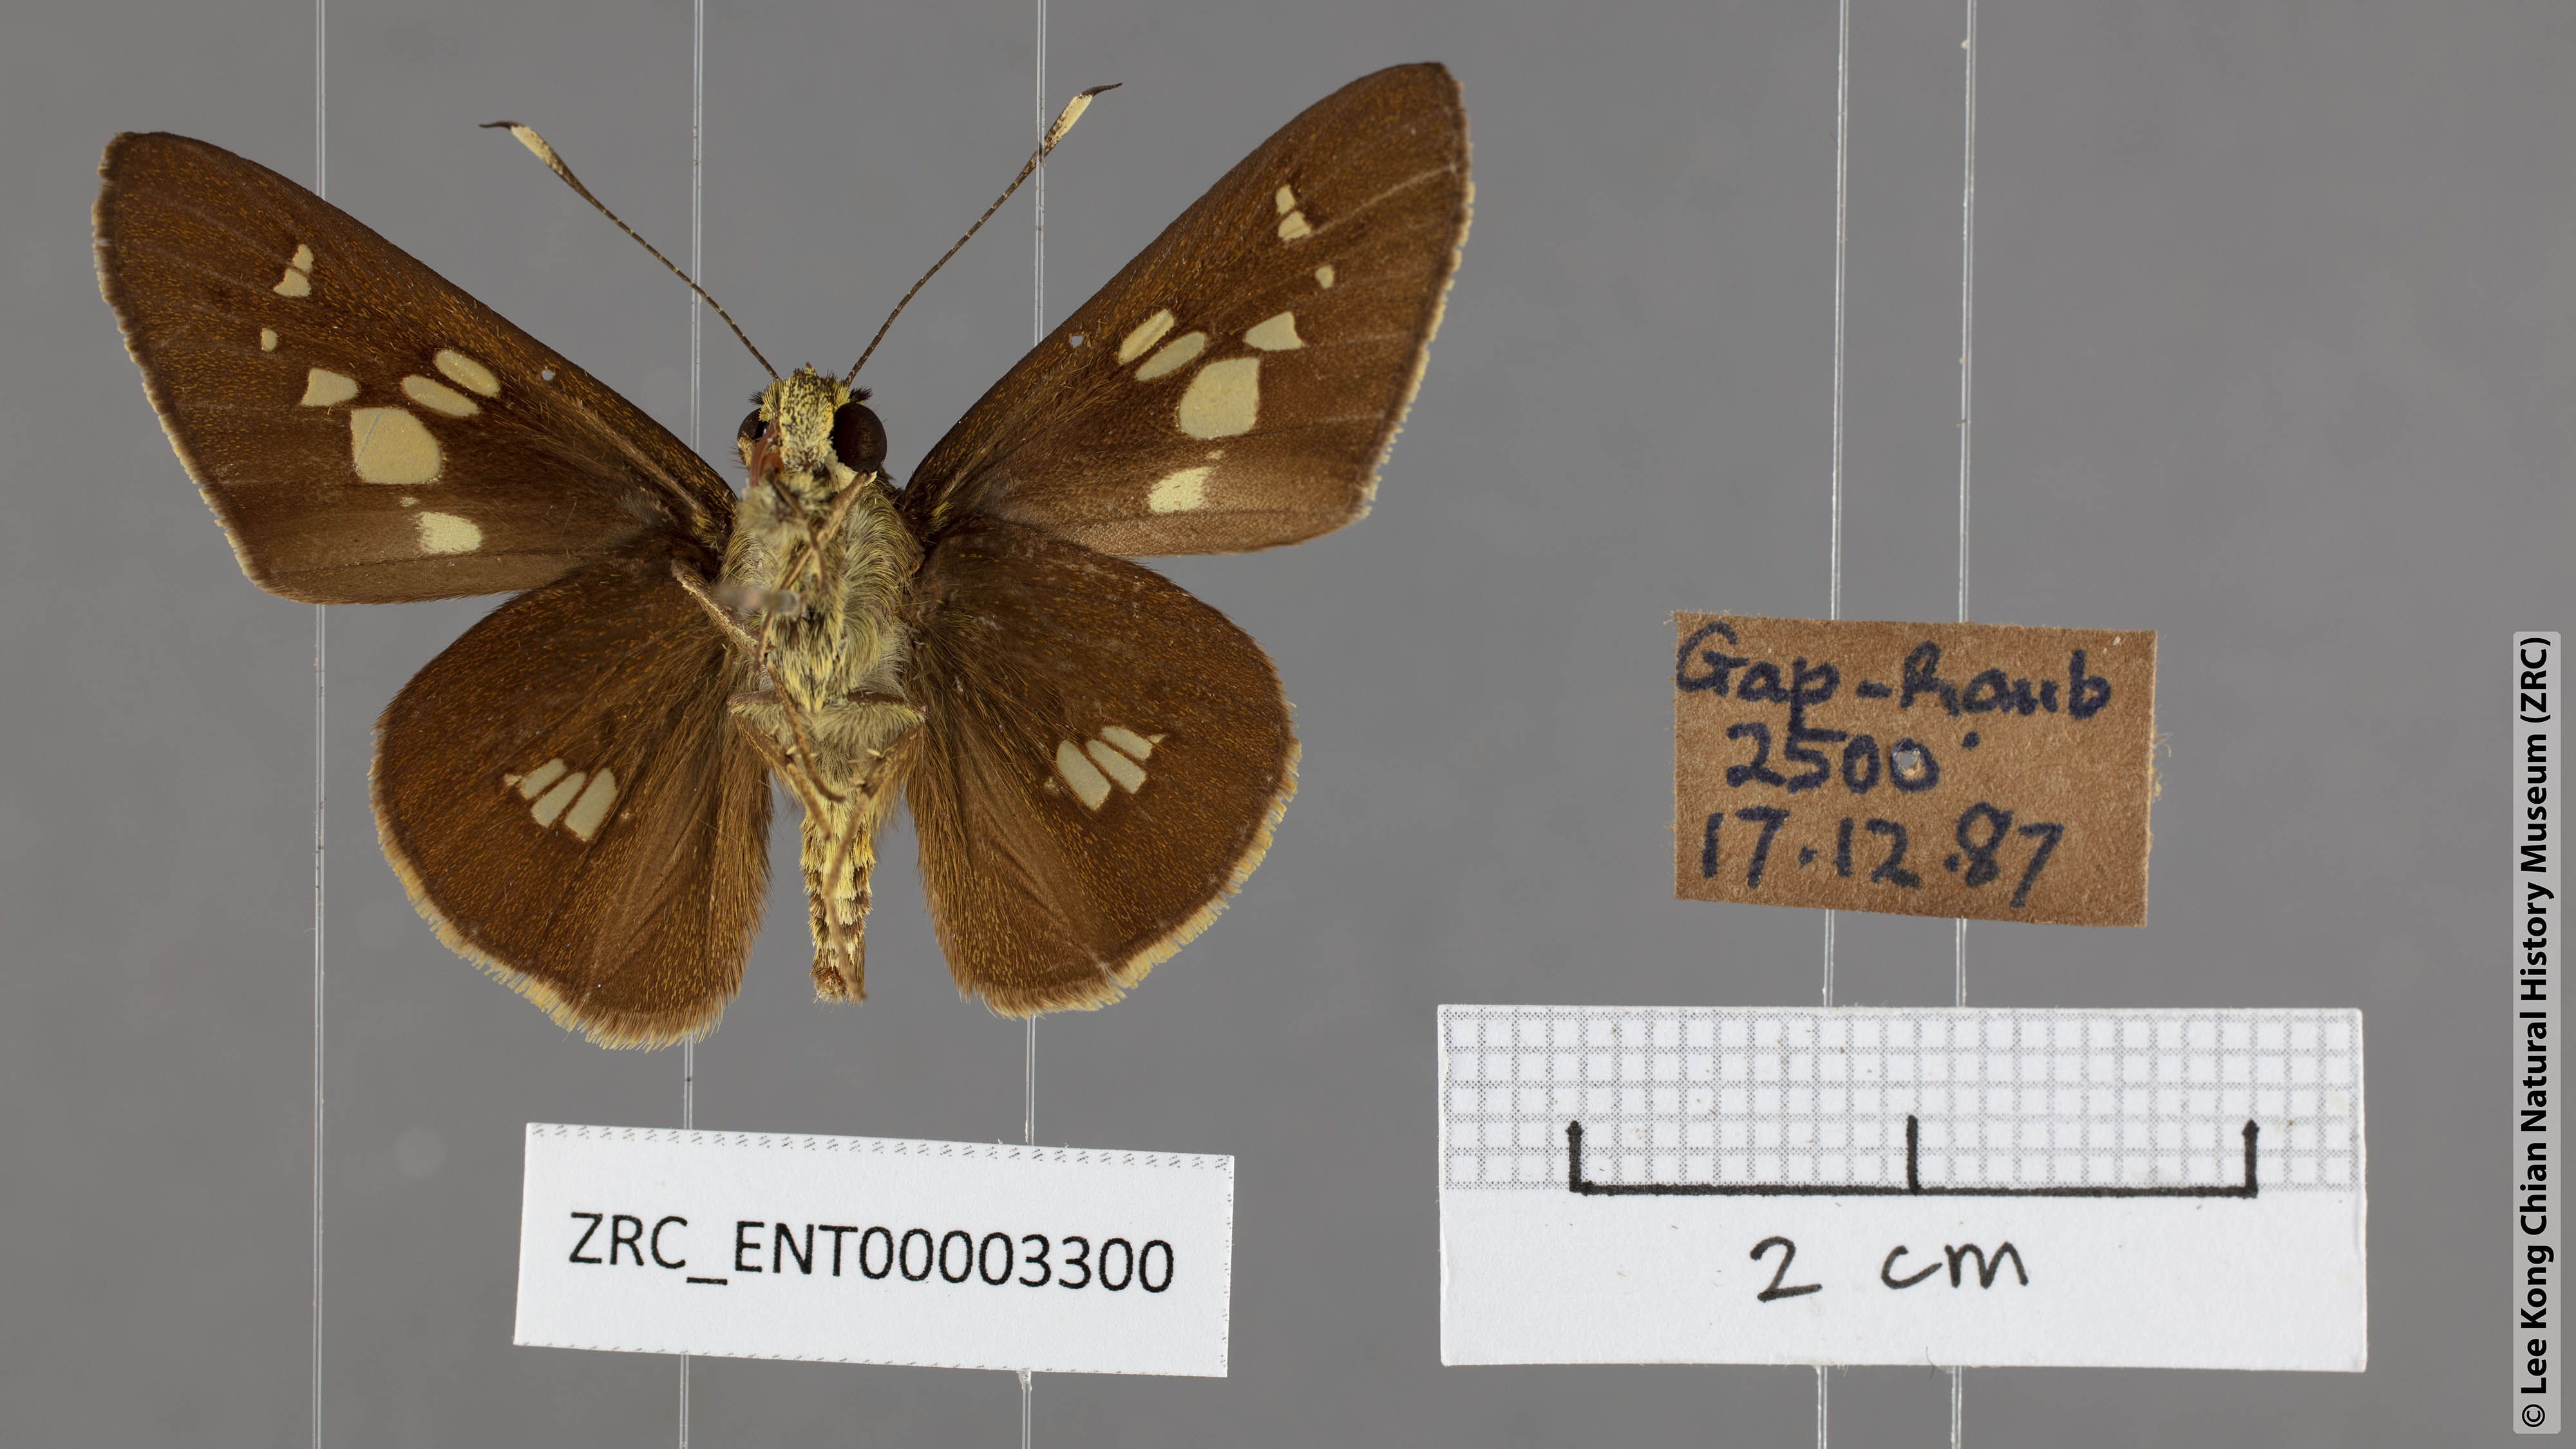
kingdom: Animalia
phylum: Arthropoda
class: Insecta
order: Lepidoptera
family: Hesperiidae
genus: Isma
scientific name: Isma
